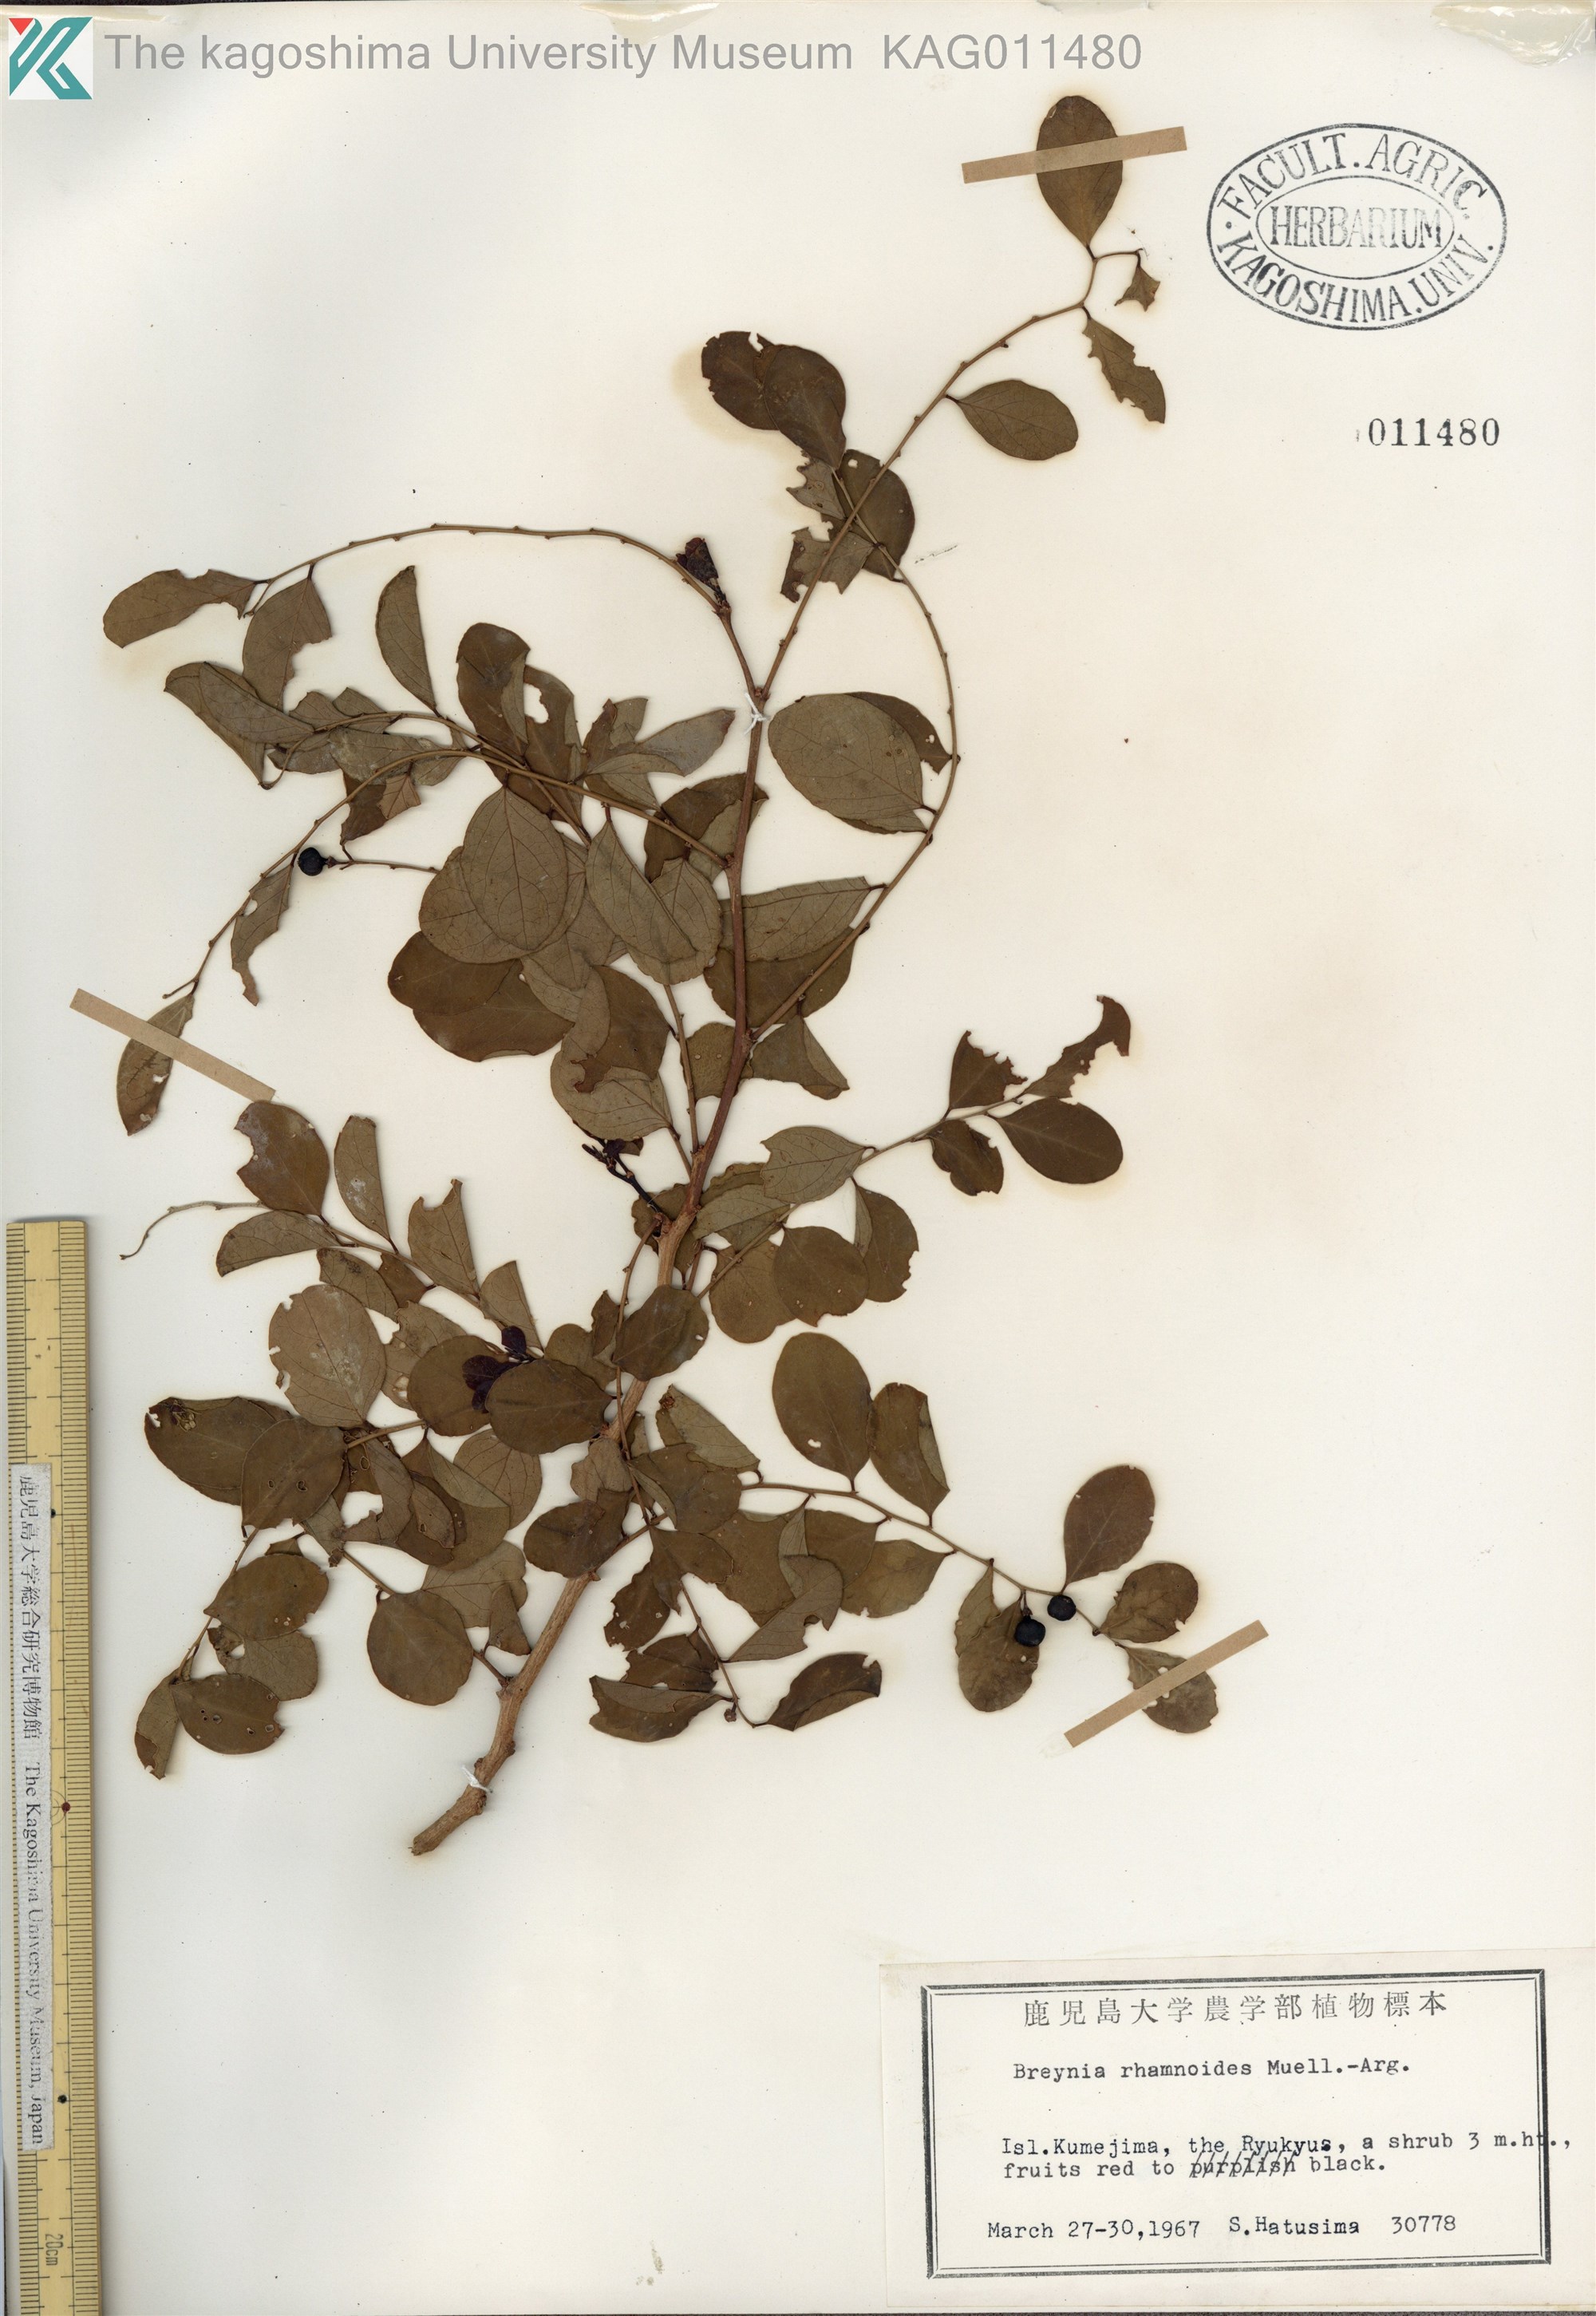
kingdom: Plantae
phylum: Tracheophyta
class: Magnoliopsida
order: Malpighiales
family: Phyllanthaceae
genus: Breynia
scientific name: Breynia vitis-idaea
